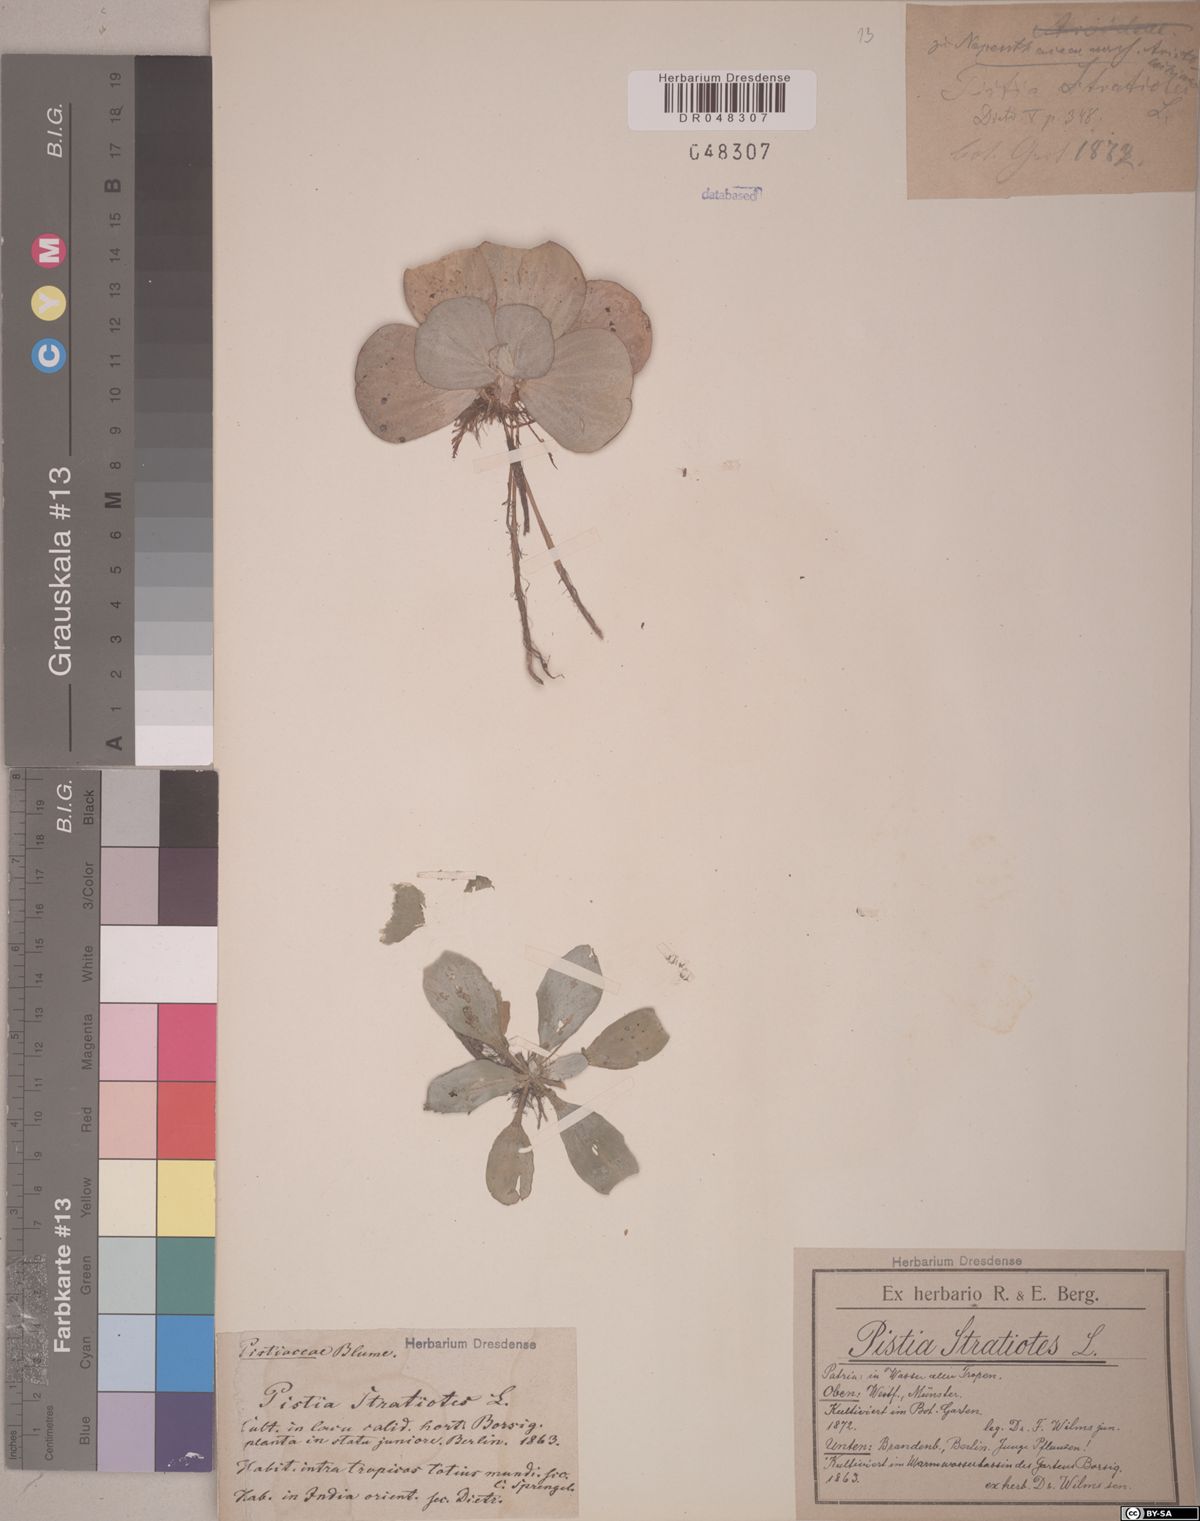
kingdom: Plantae
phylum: Tracheophyta
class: Liliopsida
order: Alismatales
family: Araceae
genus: Pistia
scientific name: Pistia stratiotes
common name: Water lettuce
